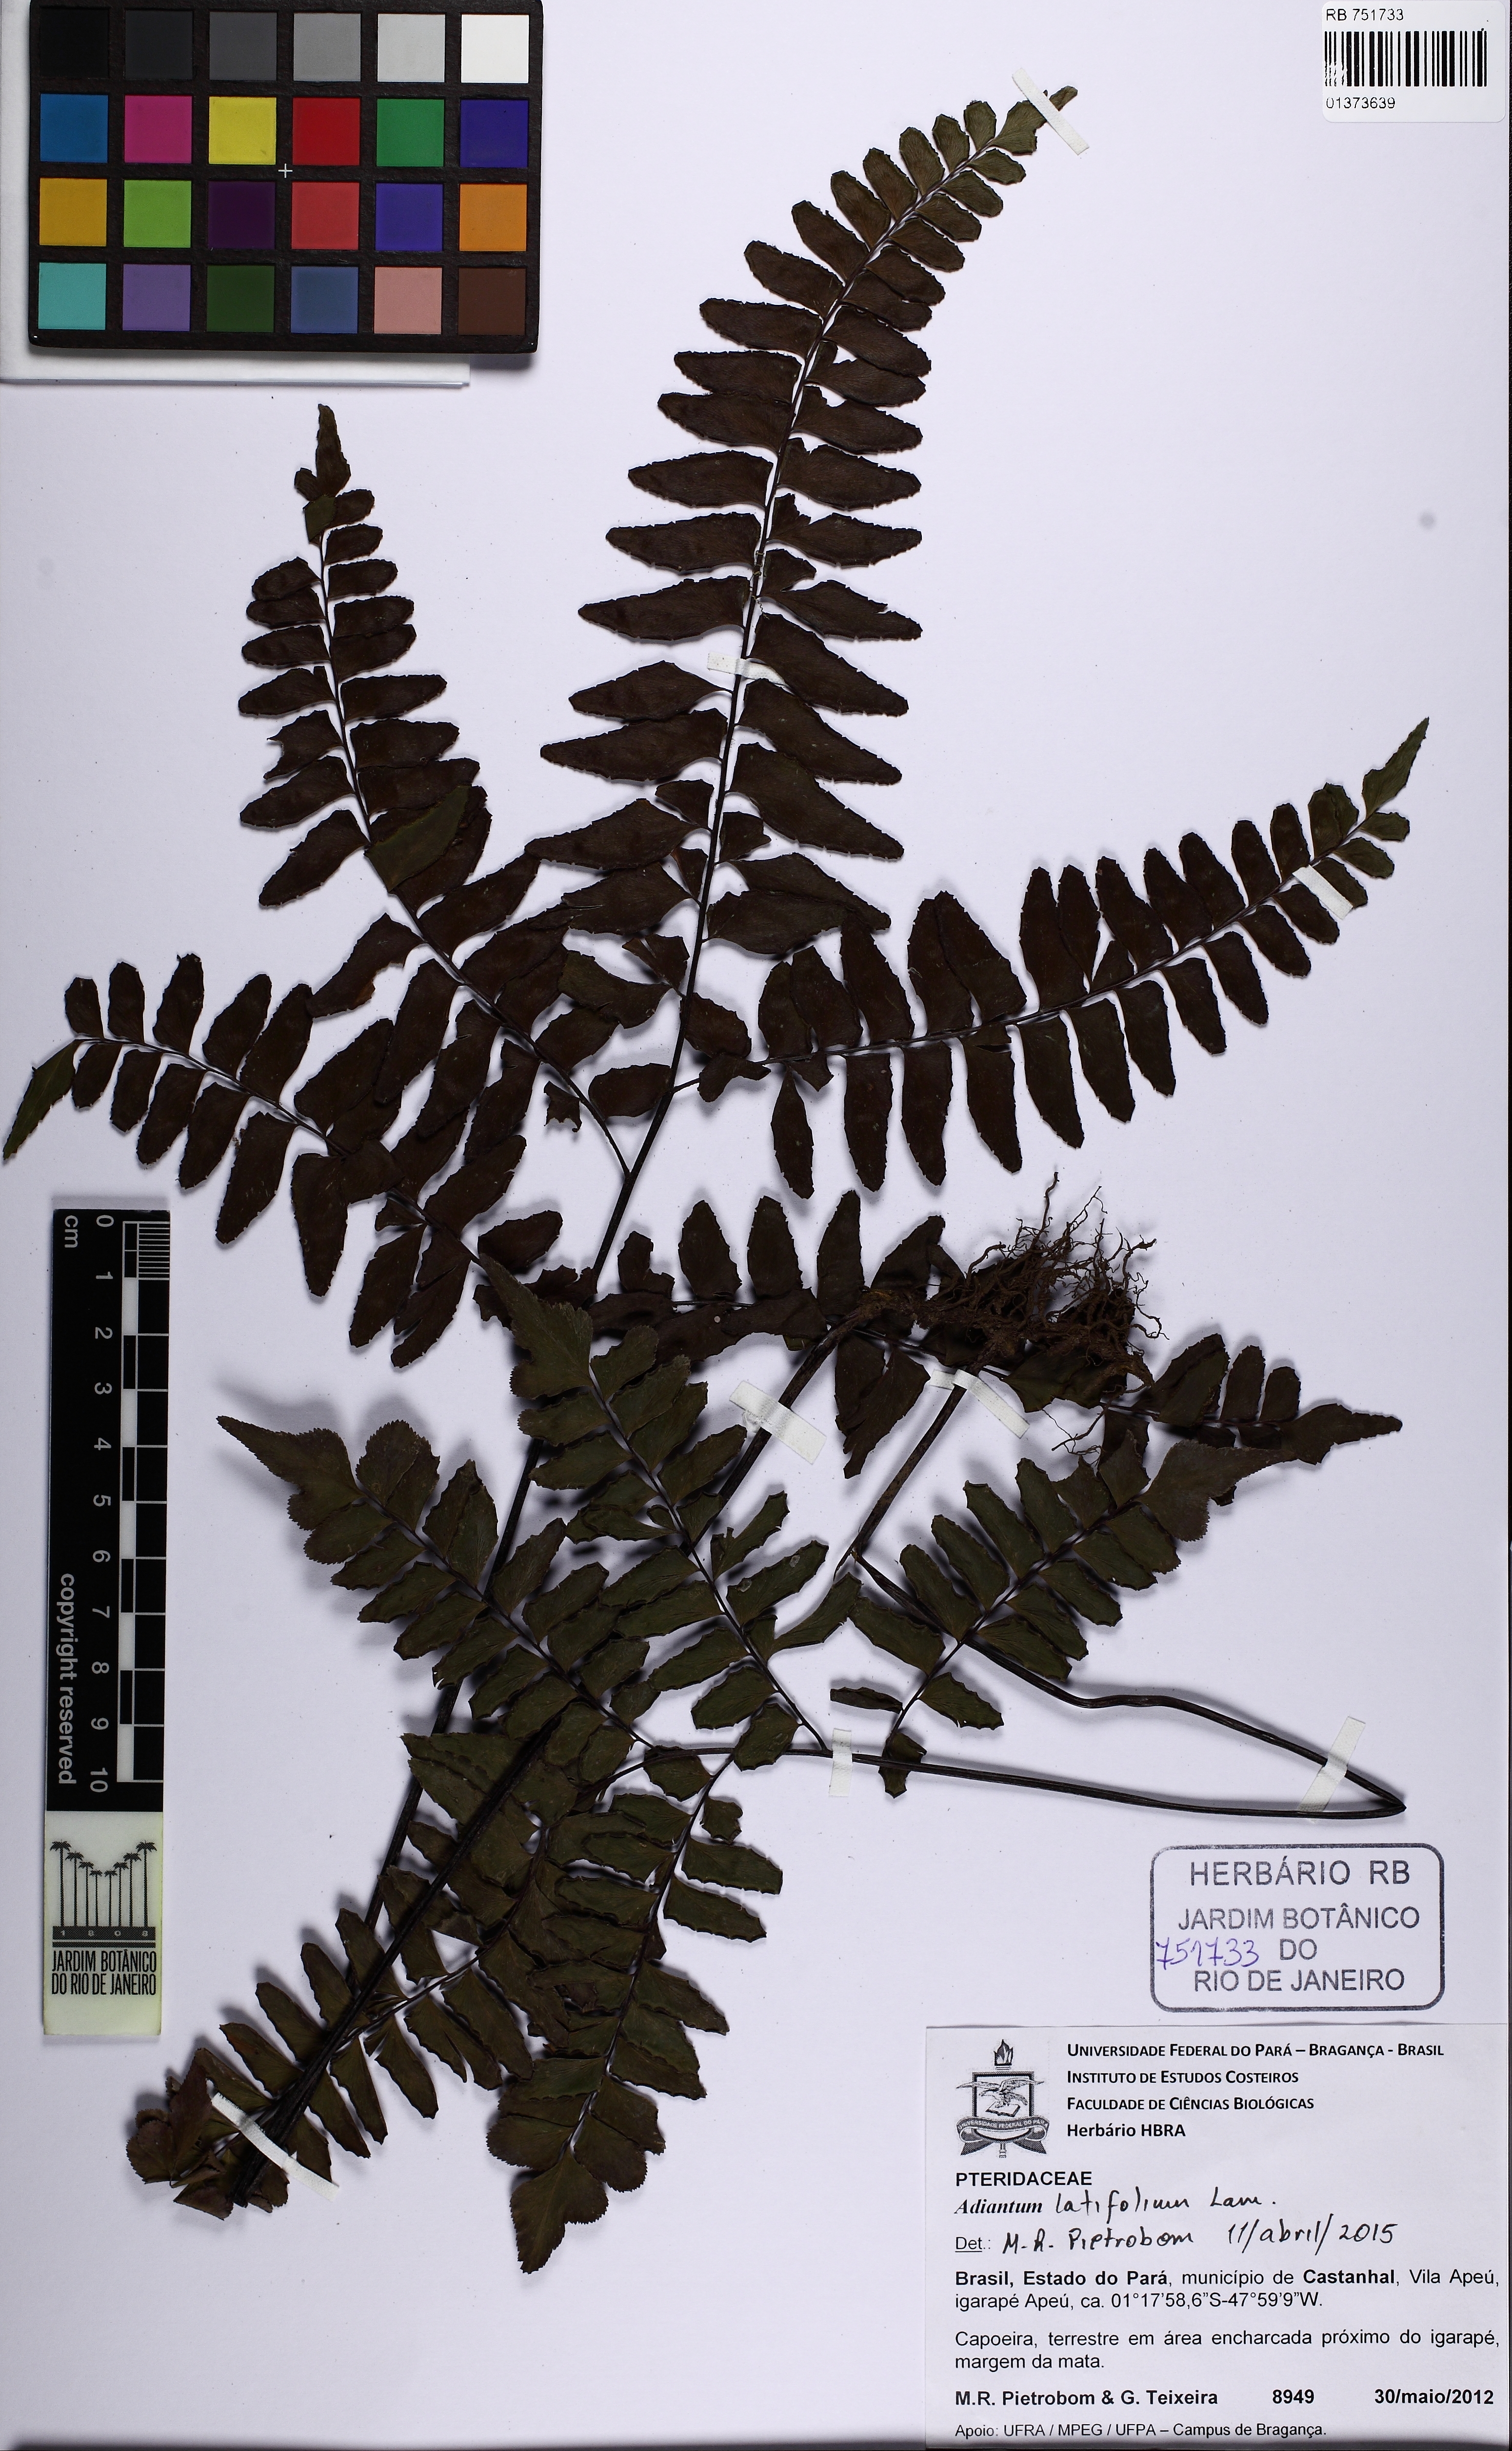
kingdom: Plantae
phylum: Tracheophyta
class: Polypodiopsida
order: Polypodiales
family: Pteridaceae
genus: Adiantum
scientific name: Adiantum latifolium
